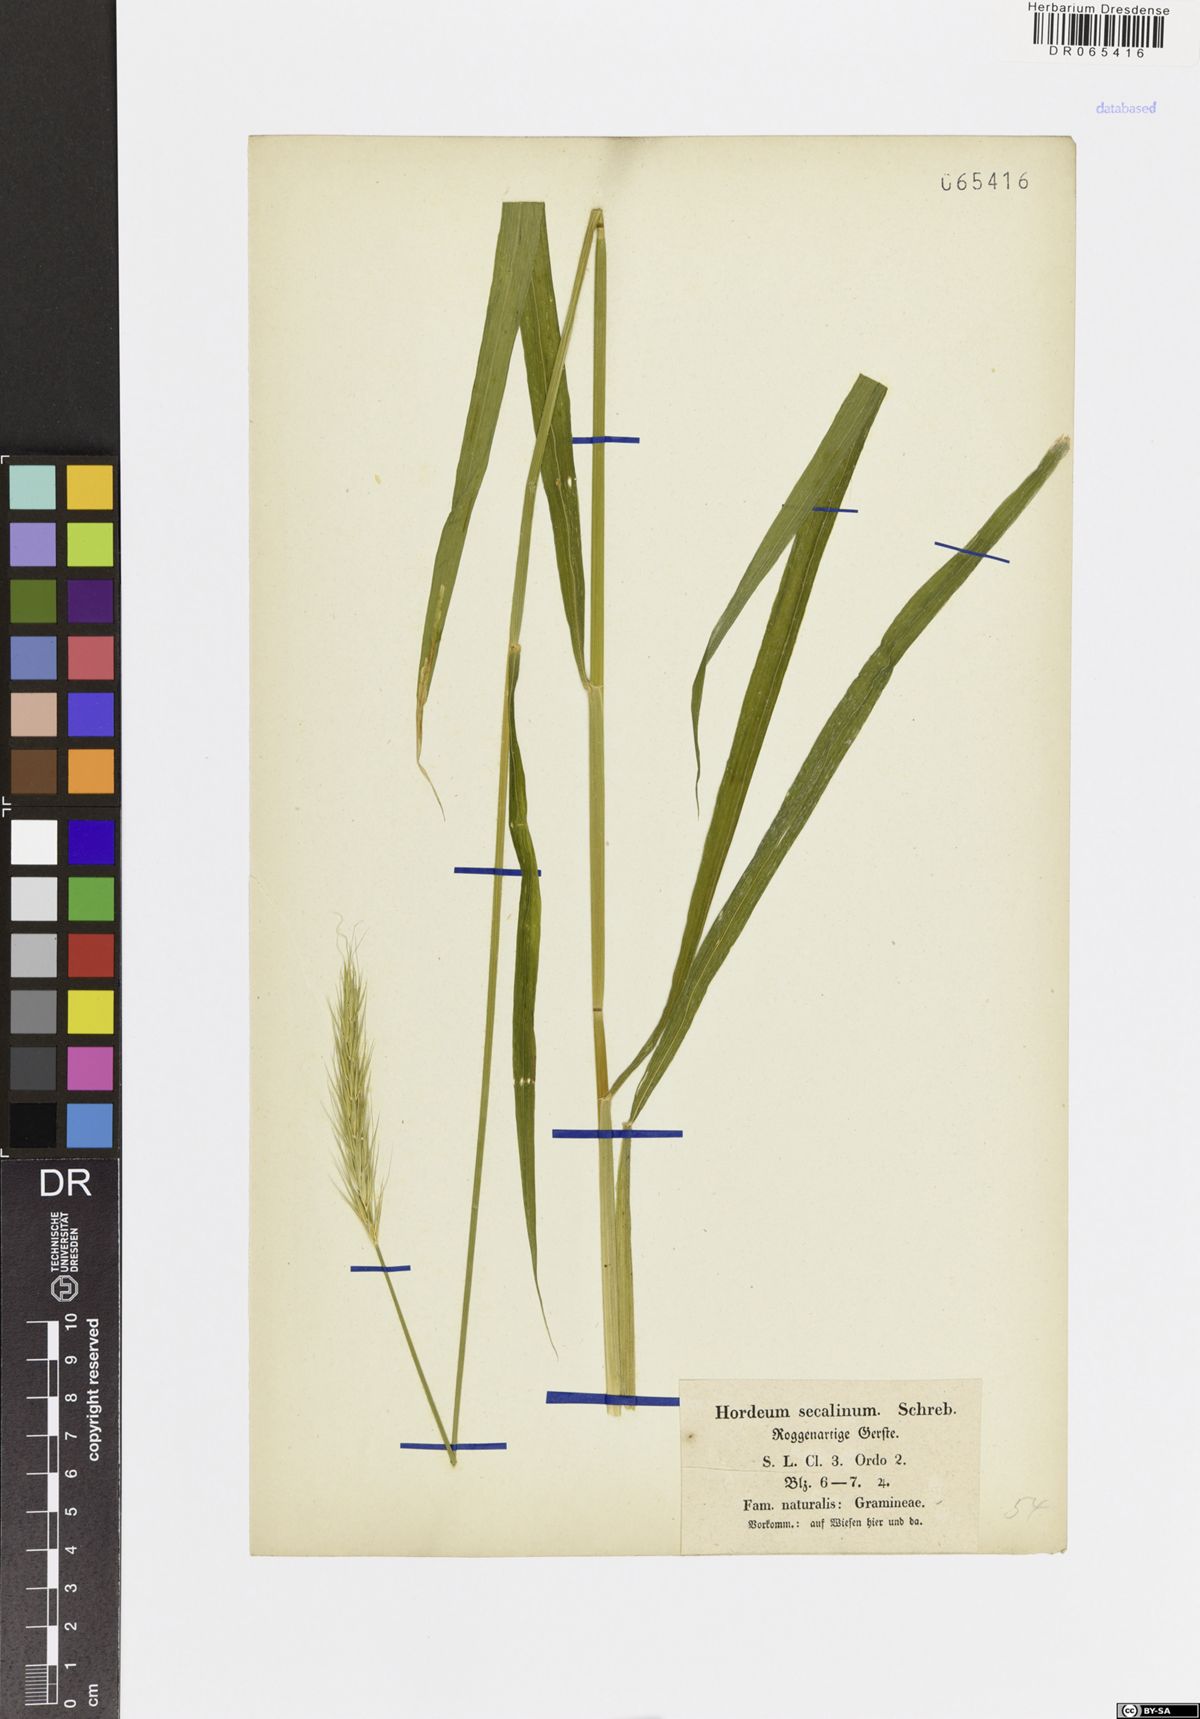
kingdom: Plantae
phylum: Tracheophyta
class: Liliopsida
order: Poales
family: Poaceae
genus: Hordeum
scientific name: Hordeum secalinum
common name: Meadow barley
